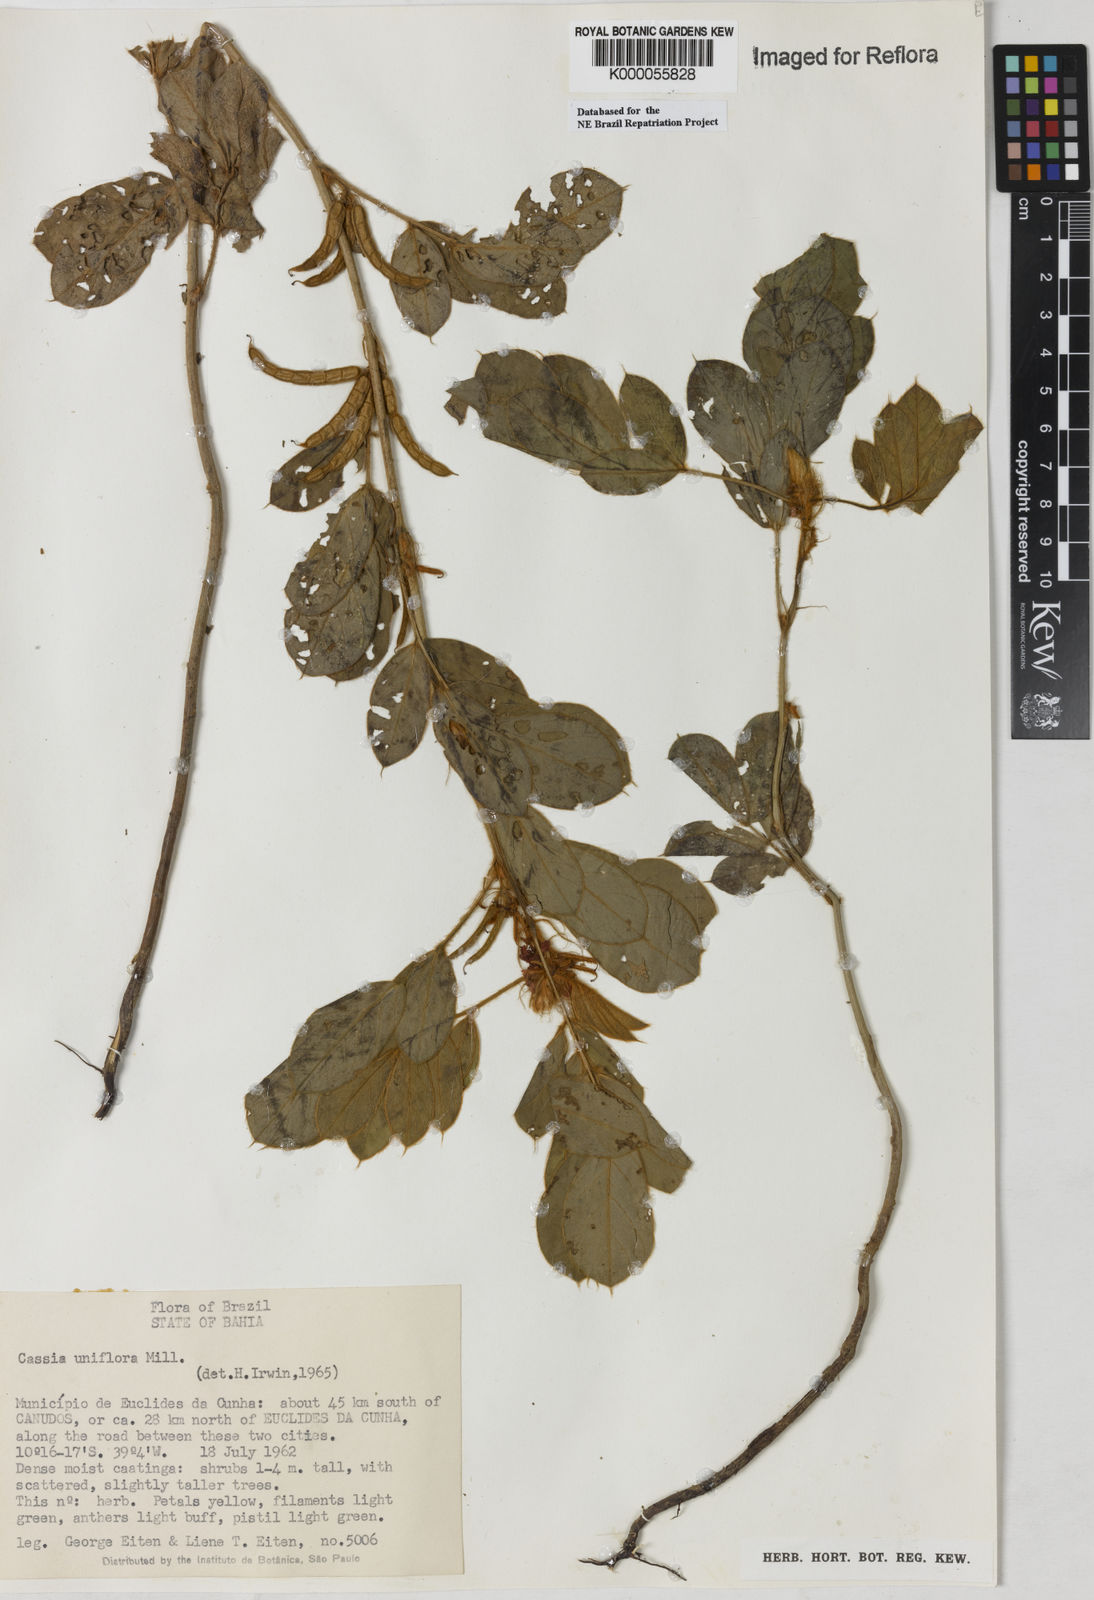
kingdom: Plantae
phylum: Tracheophyta
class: Magnoliopsida
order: Fabales
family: Fabaceae
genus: Senna
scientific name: Senna uniflora
